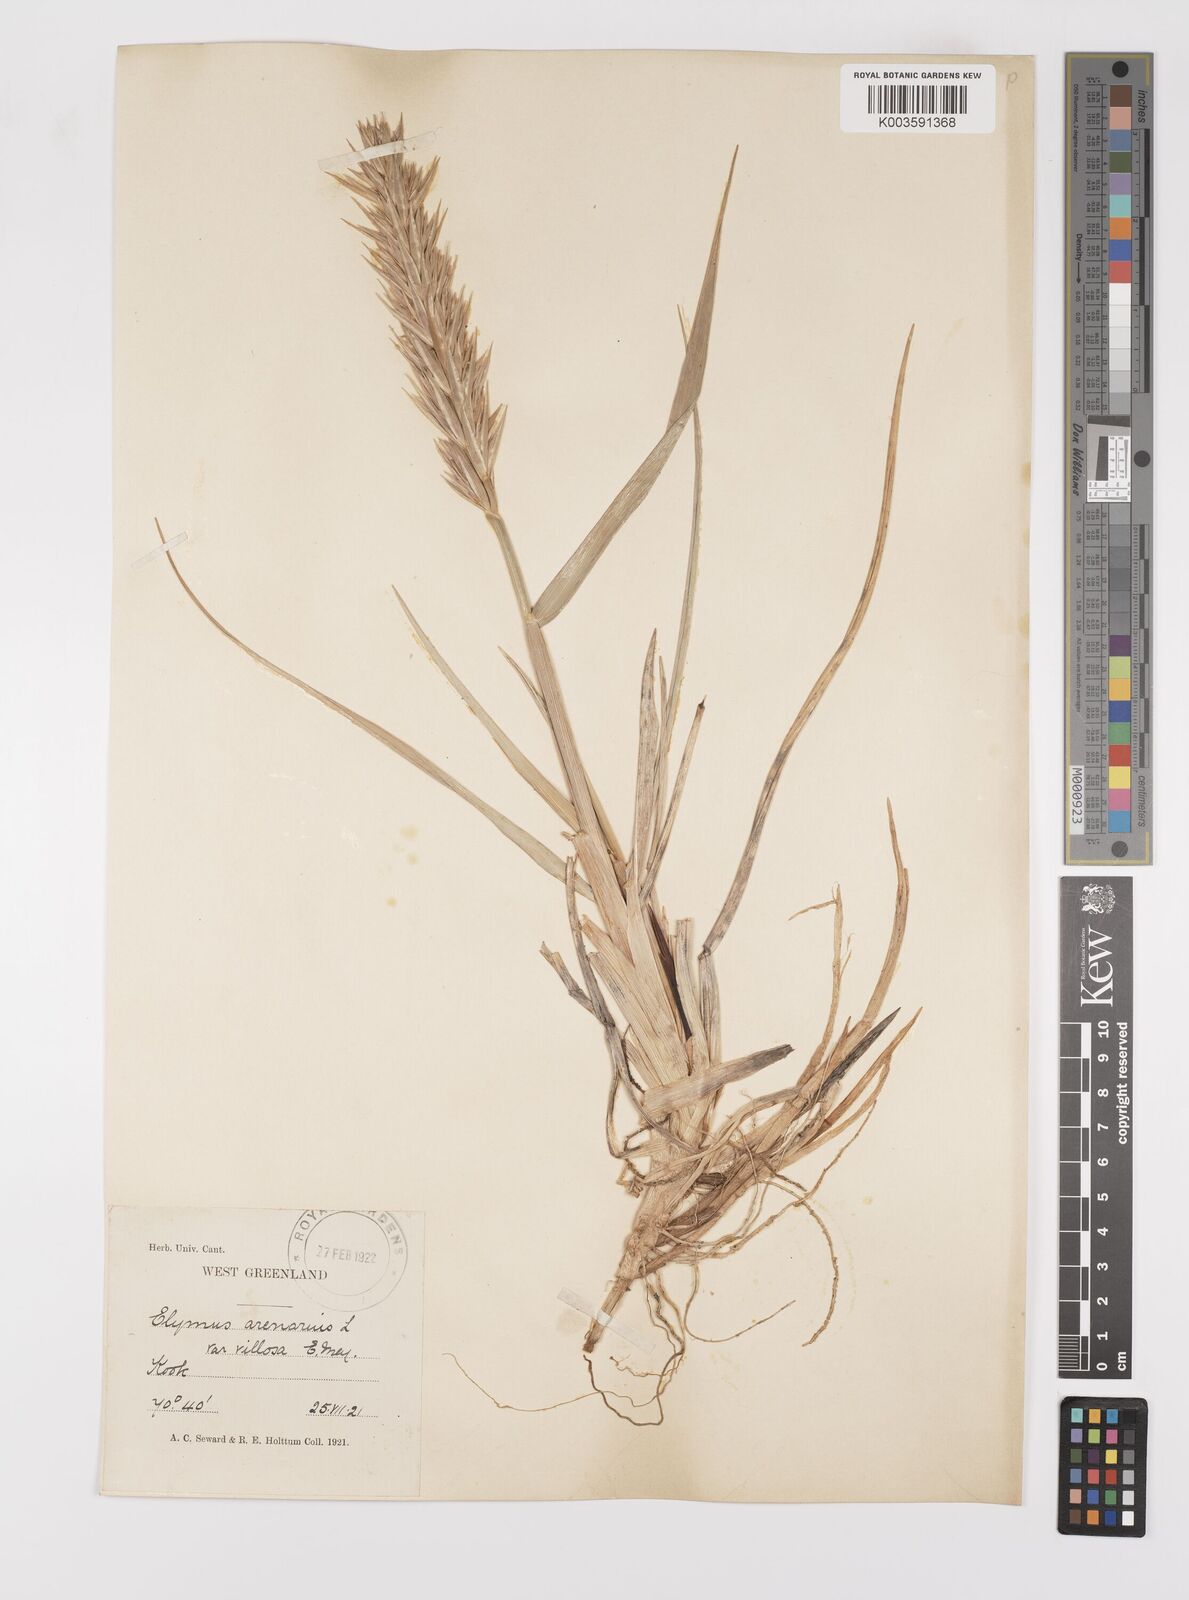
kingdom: Plantae
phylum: Tracheophyta
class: Liliopsida
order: Poales
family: Poaceae
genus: Leymus
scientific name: Leymus mollis
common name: American dune grass
